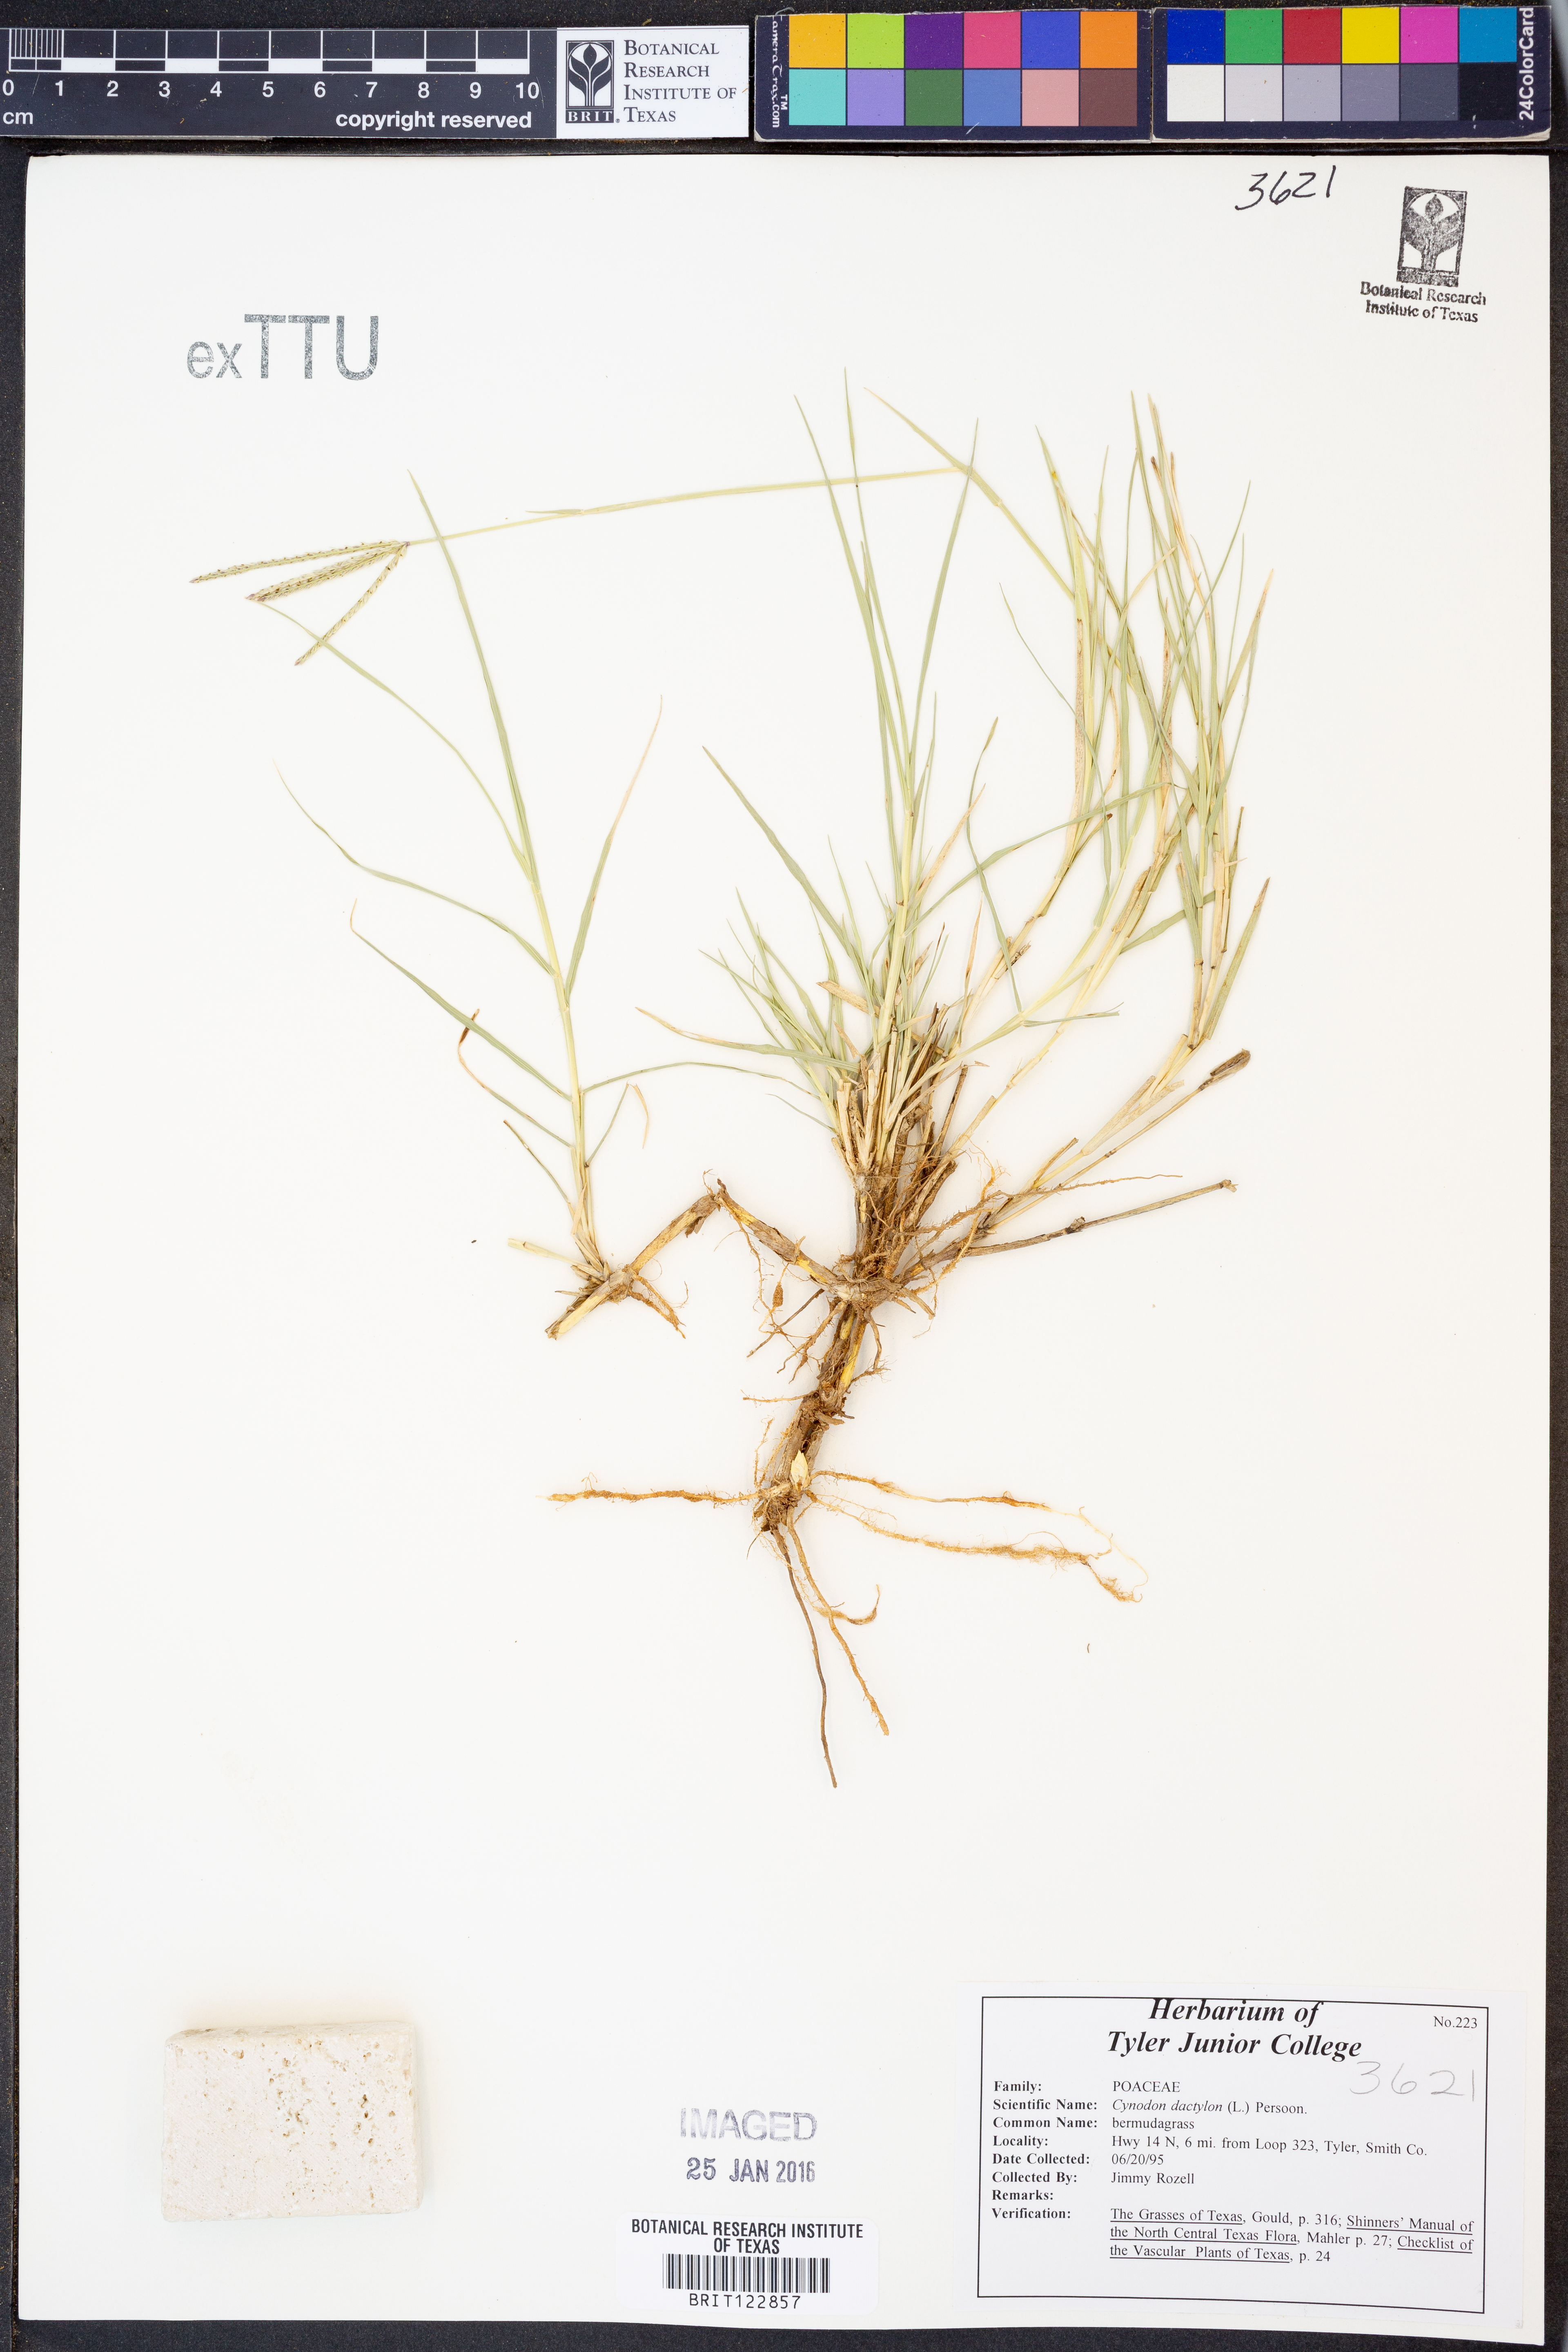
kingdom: Plantae
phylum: Tracheophyta
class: Liliopsida
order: Poales
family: Poaceae
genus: Cynodon
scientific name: Cynodon dactylon
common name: Bermuda grass
